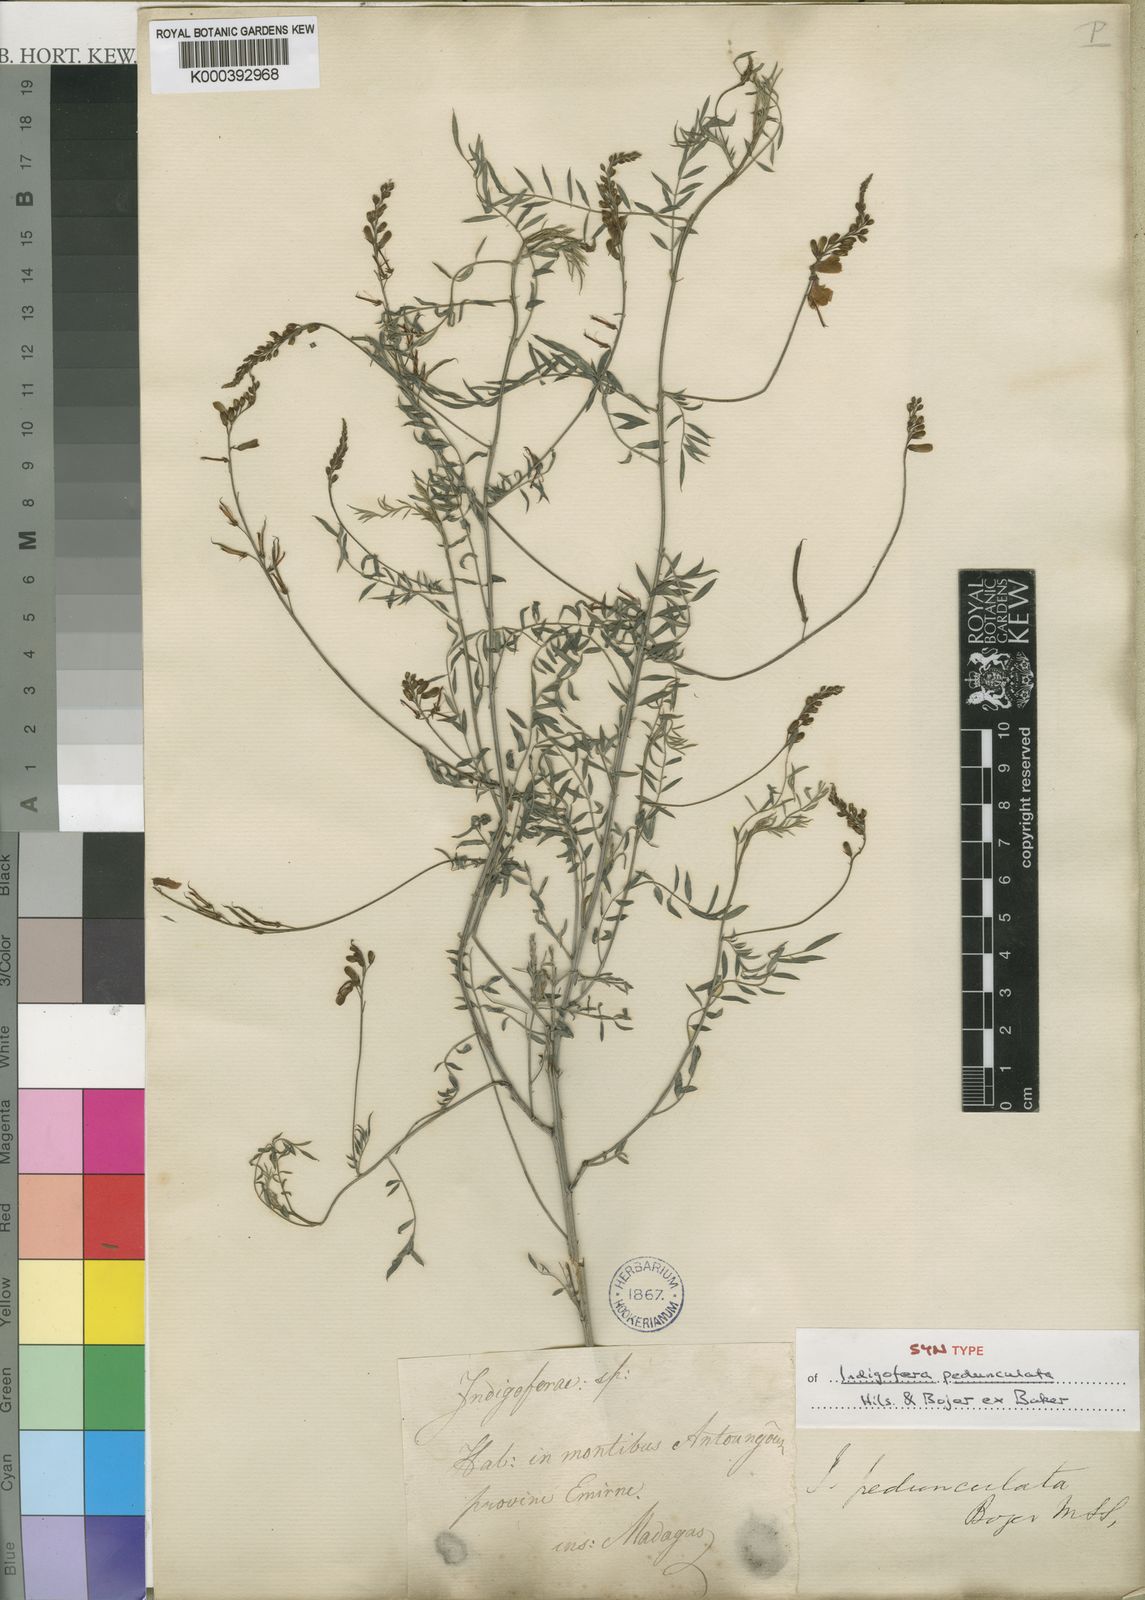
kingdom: Plantae
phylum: Tracheophyta
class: Magnoliopsida
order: Fabales
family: Fabaceae
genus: Indigofera
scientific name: Indigofera pedunculata
